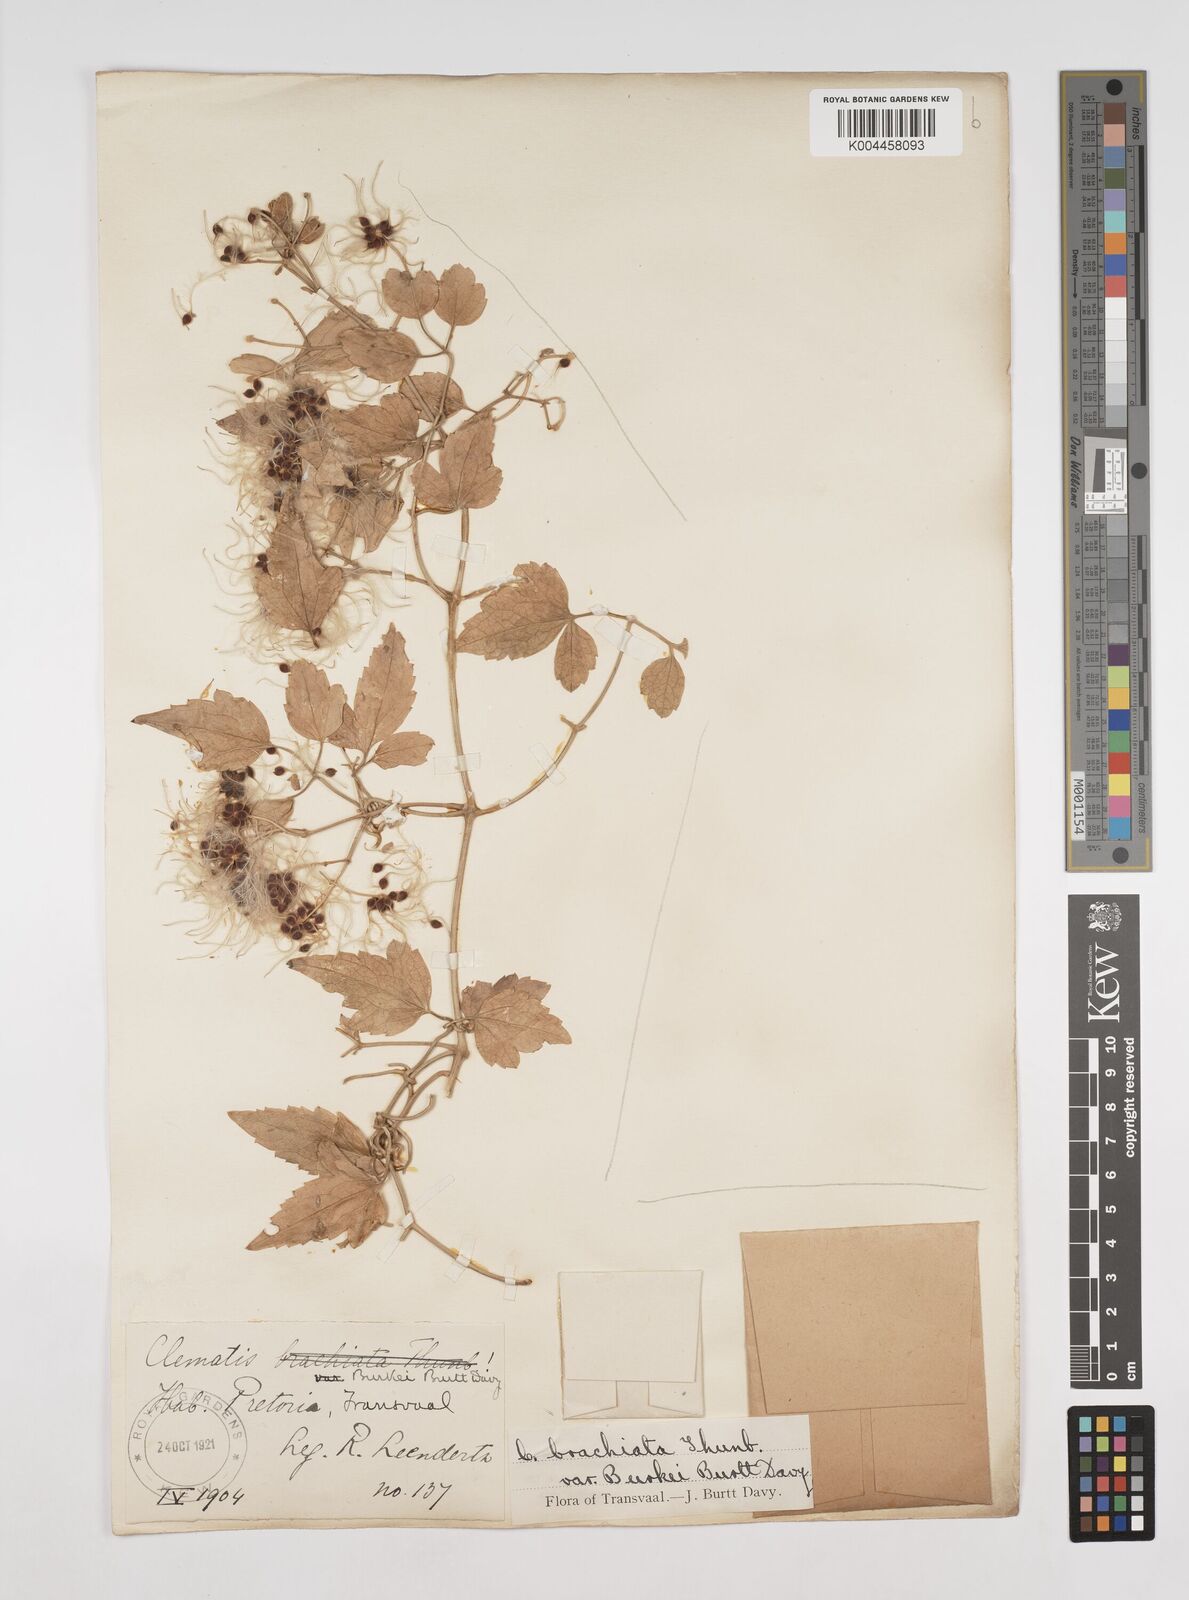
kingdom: Plantae
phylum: Tracheophyta
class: Magnoliopsida
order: Ranunculales
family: Ranunculaceae
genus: Clematis
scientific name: Clematis brachiata
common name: Traveler's-joy
